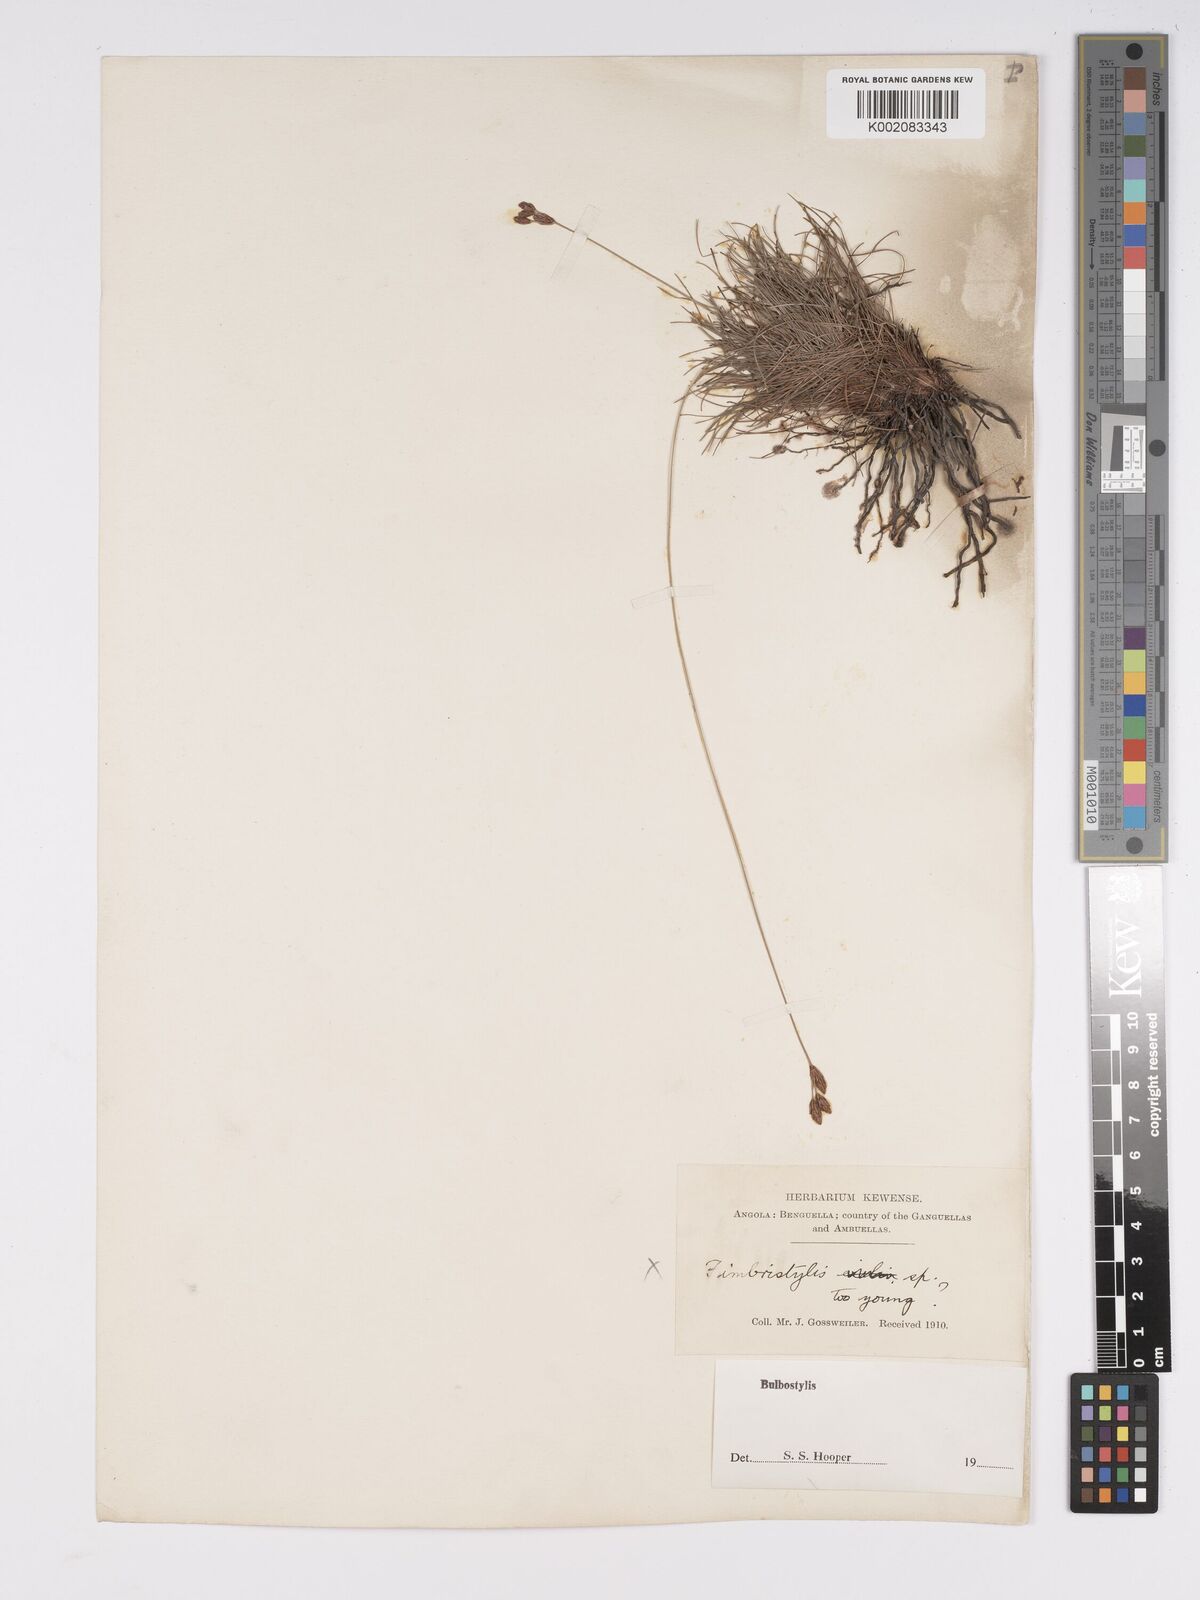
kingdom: Plantae
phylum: Tracheophyta
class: Liliopsida
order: Poales
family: Cyperaceae
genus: Bulbostylis
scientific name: Bulbostylis schoenoides
